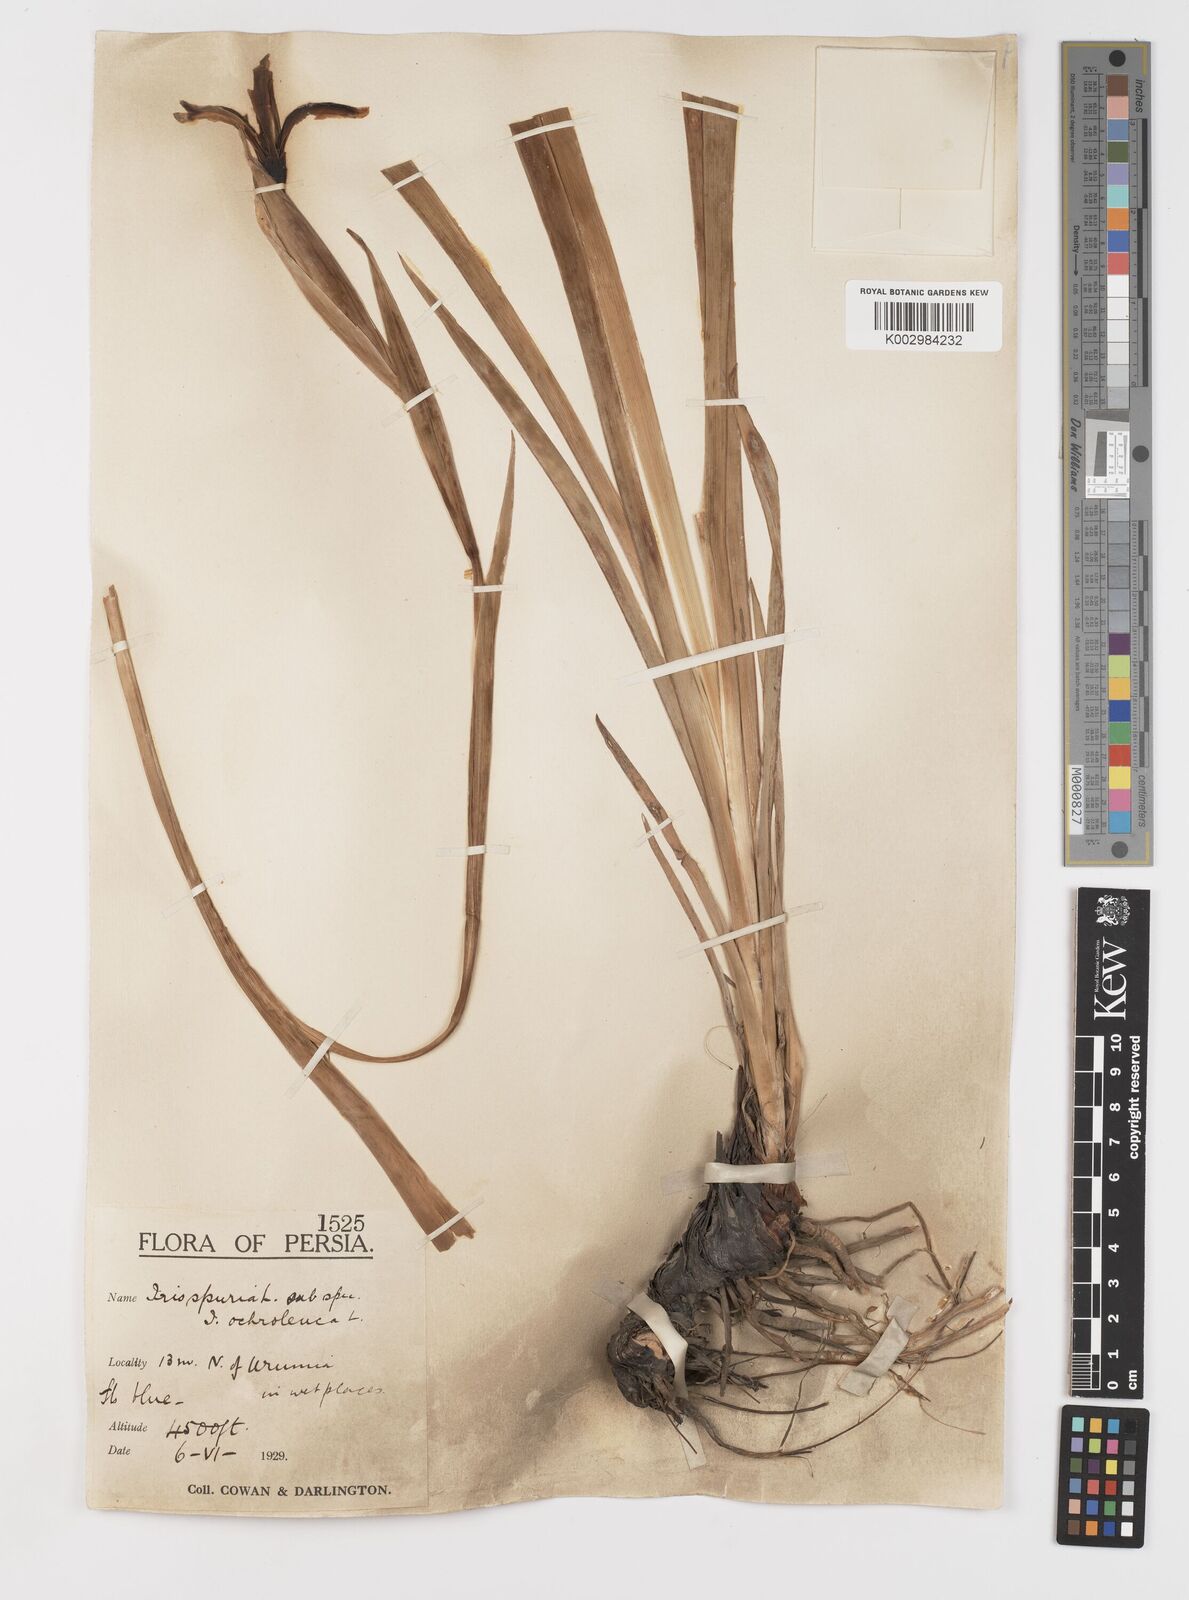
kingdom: Plantae
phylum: Tracheophyta
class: Liliopsida
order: Asparagales
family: Iridaceae
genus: Iris
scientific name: Iris spuria
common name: Blue iris
